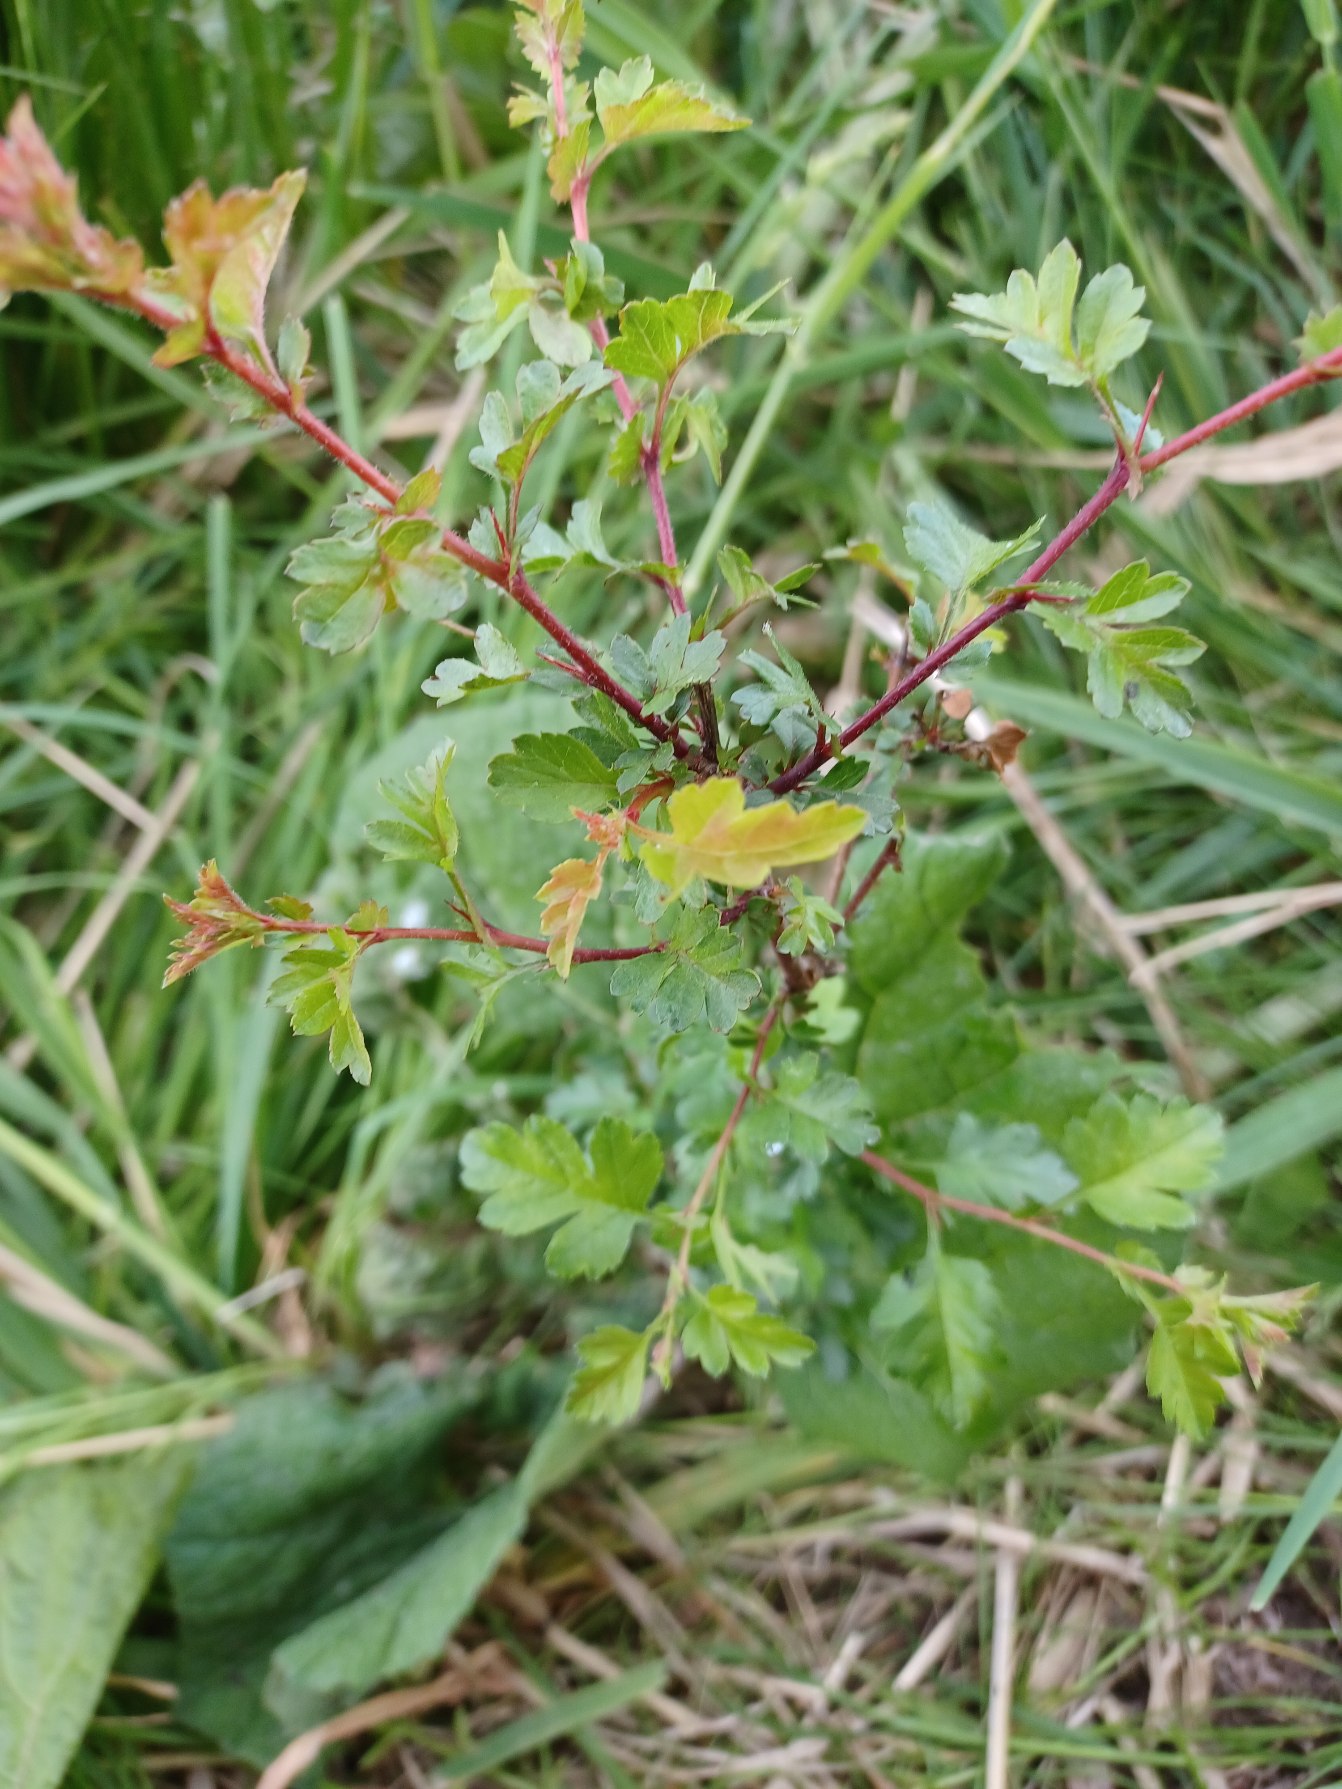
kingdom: Plantae
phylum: Tracheophyta
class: Magnoliopsida
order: Rosales
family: Rosaceae
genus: Crataegus
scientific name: Crataegus monogyna
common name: Engriflet hvidtjørn
